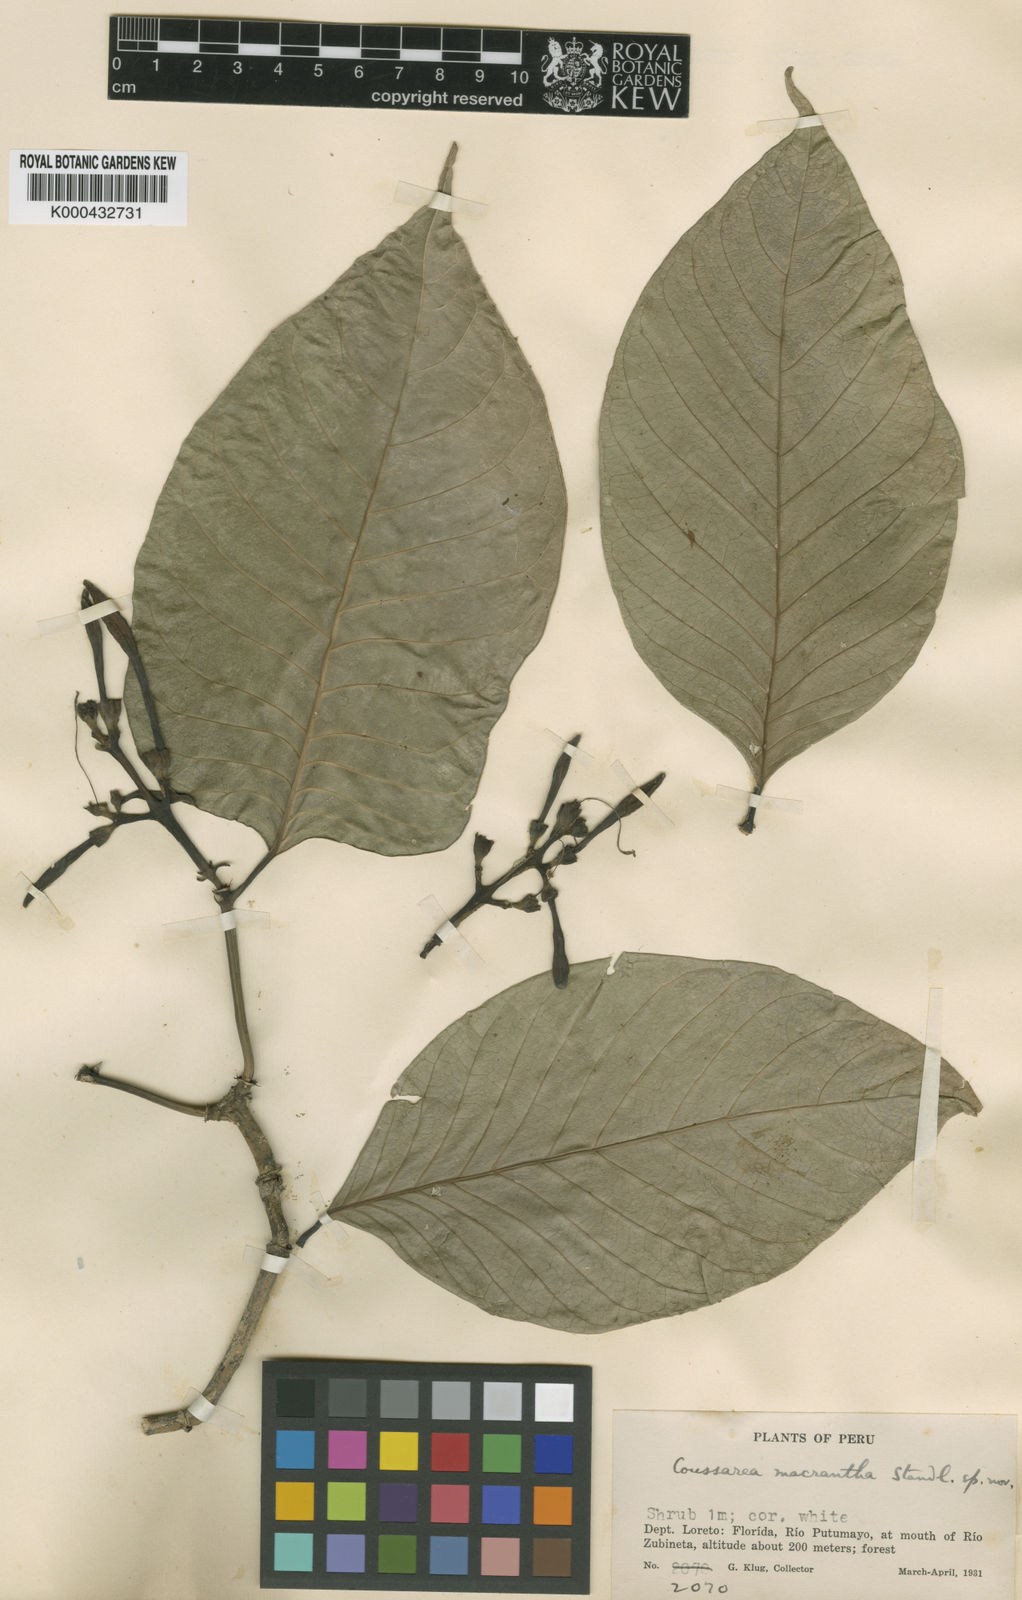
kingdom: Plantae
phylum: Tracheophyta
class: Magnoliopsida
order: Gentianales
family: Rubiaceae
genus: Coussarea
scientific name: Coussarea macrophylla
